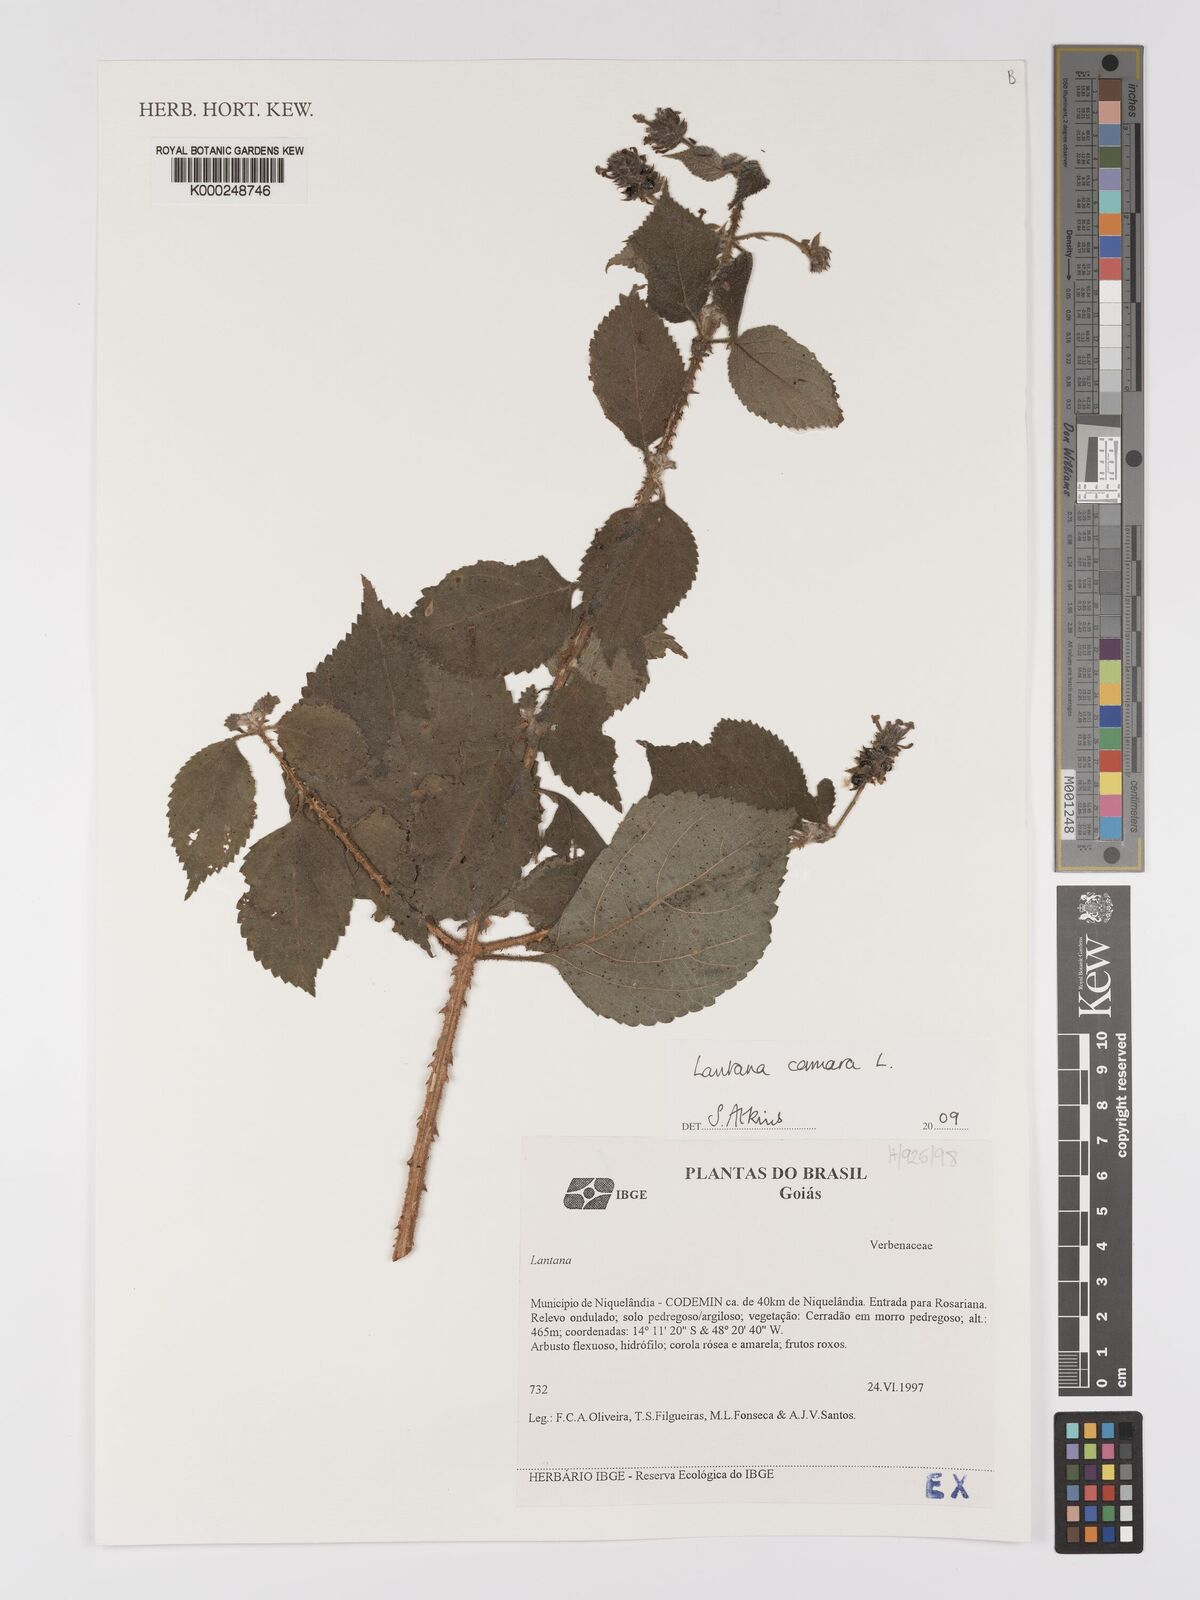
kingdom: Plantae
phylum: Tracheophyta
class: Magnoliopsida
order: Lamiales
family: Verbenaceae
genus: Lantana
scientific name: Lantana camara
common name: Lantana
